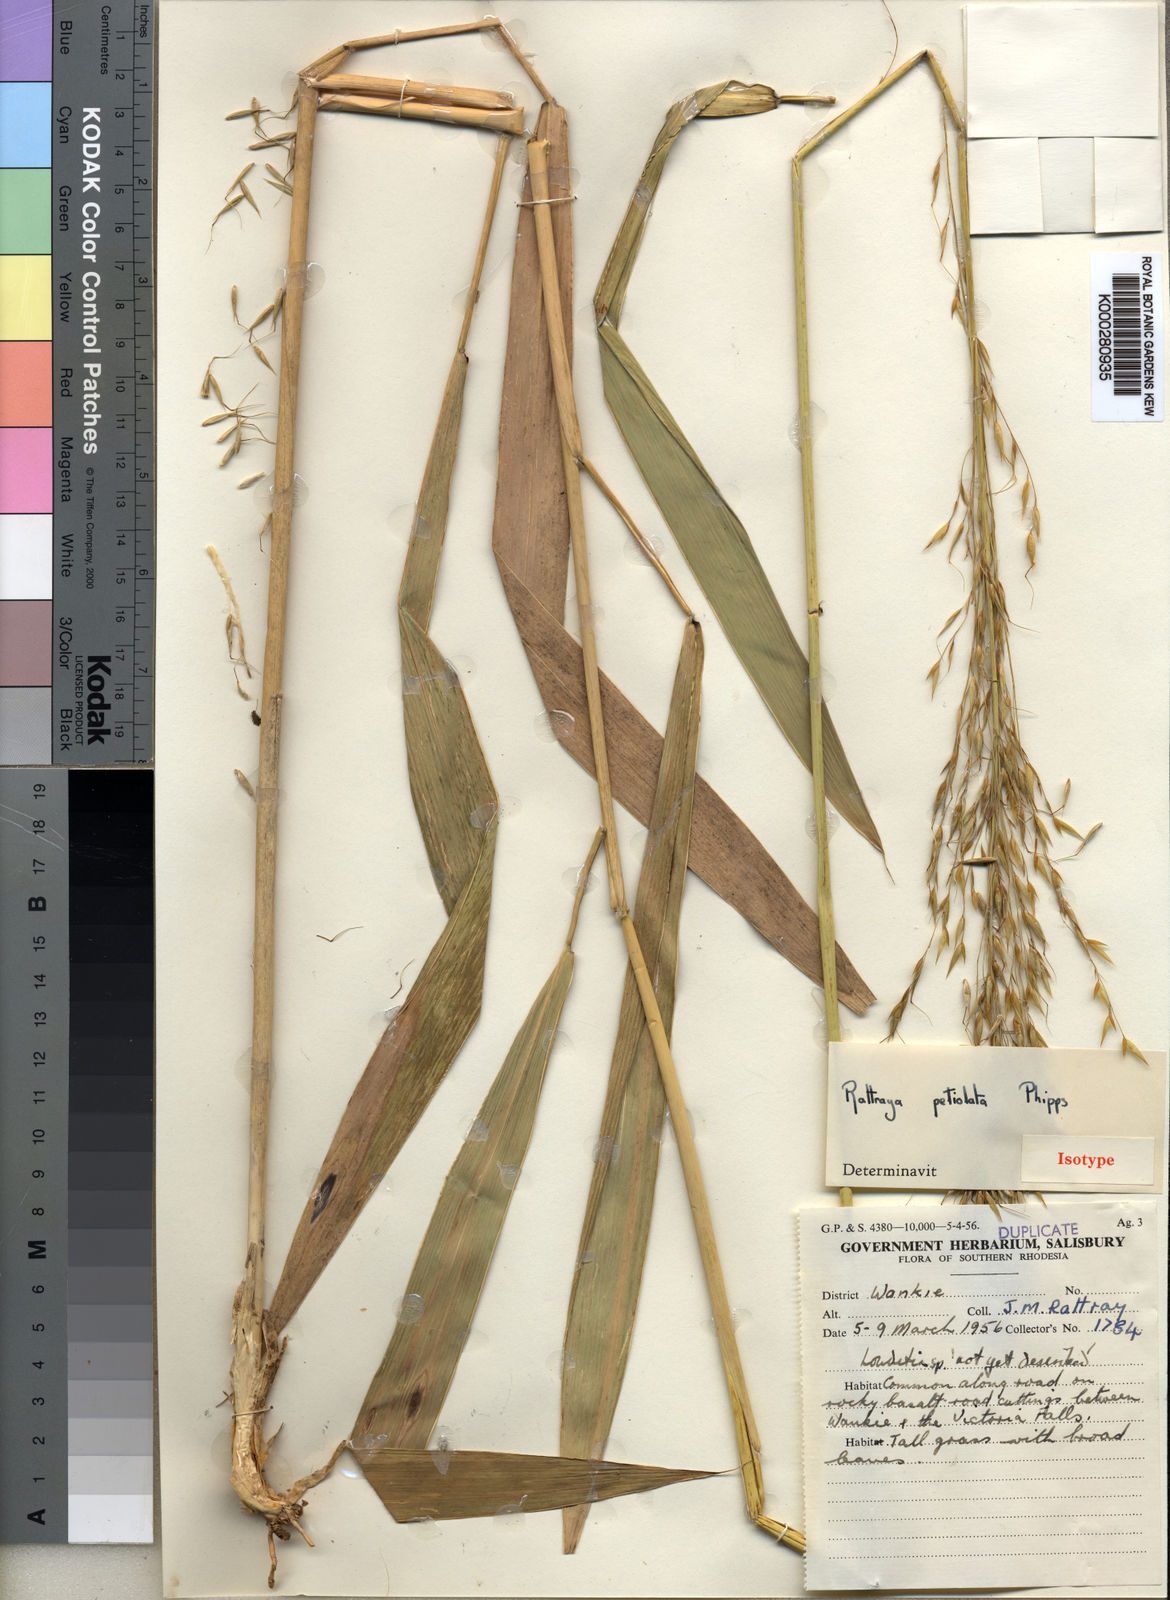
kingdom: Plantae
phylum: Tracheophyta
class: Liliopsida
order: Poales
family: Poaceae
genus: Danthoniopsis
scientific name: Danthoniopsis petiolata
